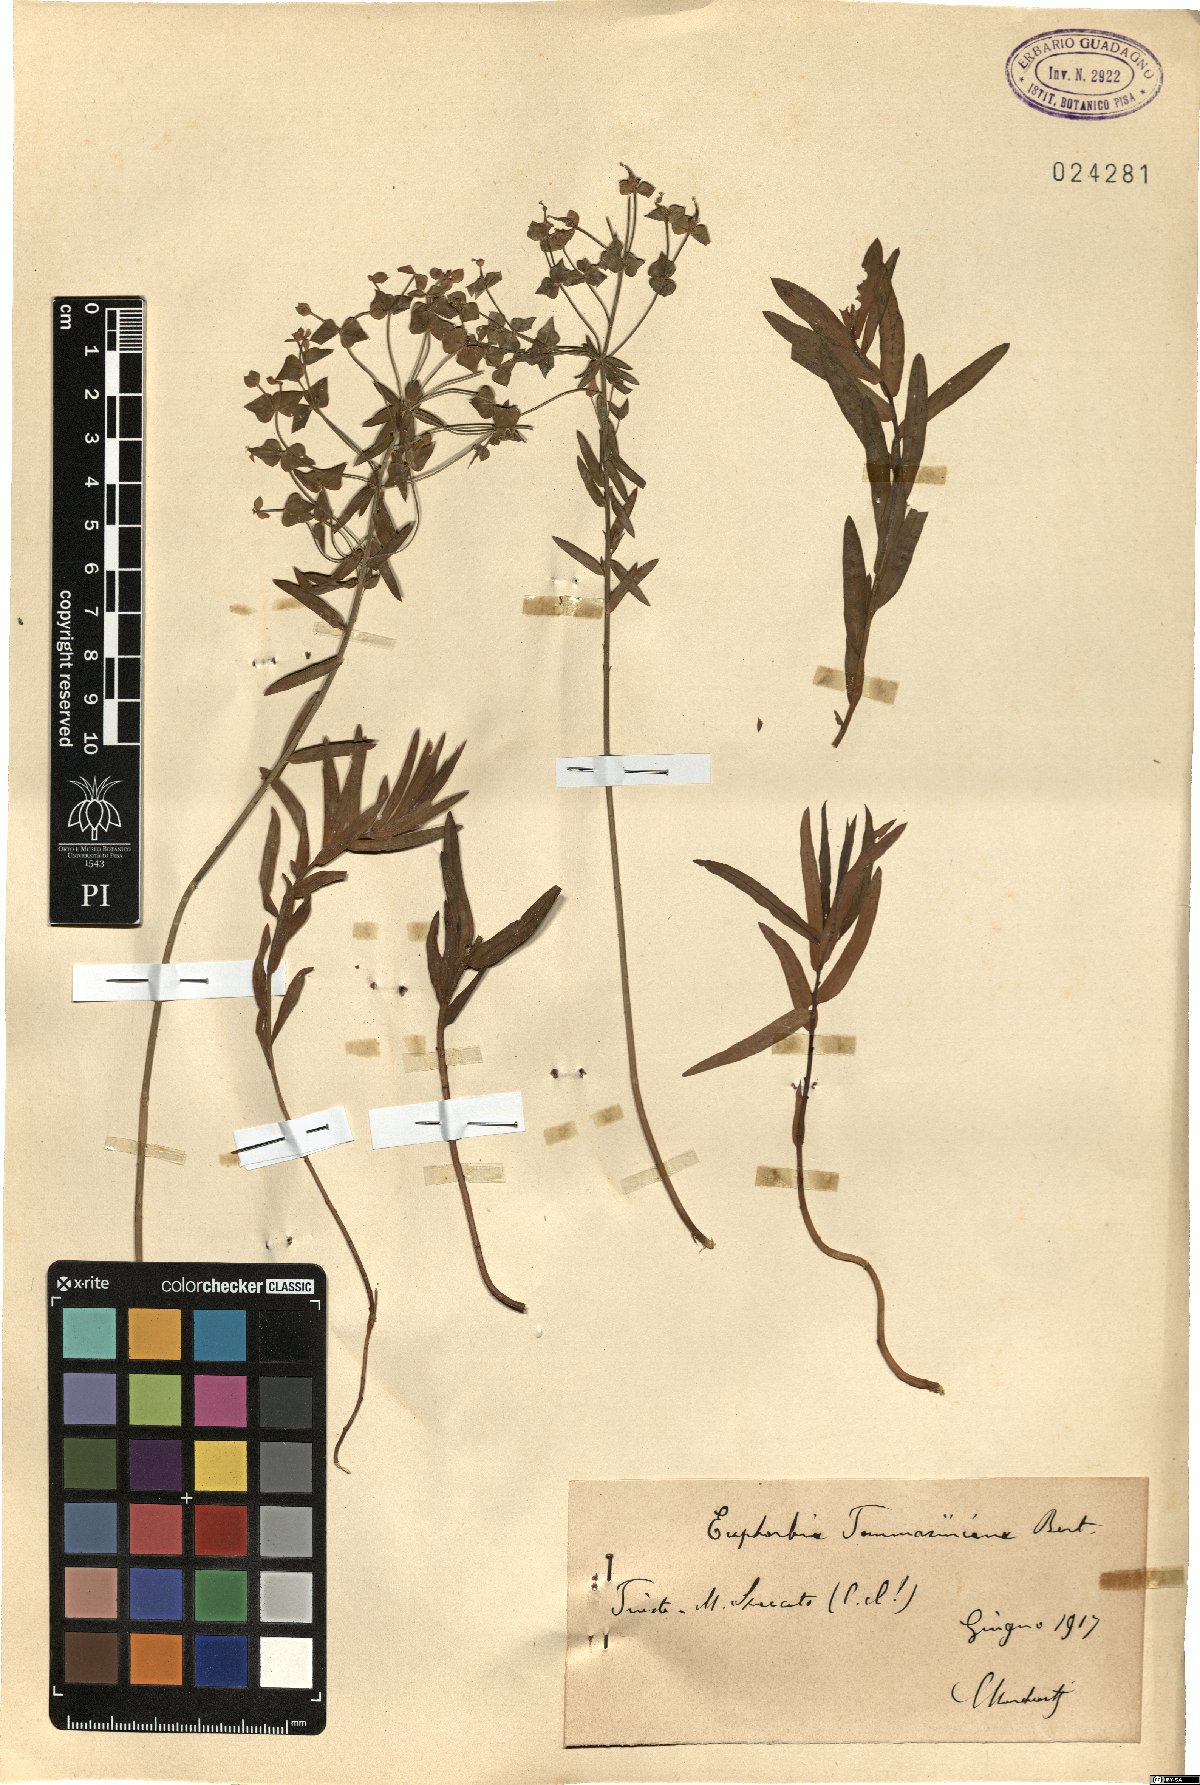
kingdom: Plantae
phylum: Tracheophyta
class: Magnoliopsida
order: Malpighiales
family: Euphorbiaceae
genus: Euphorbia
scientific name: Euphorbia tommasiniana
